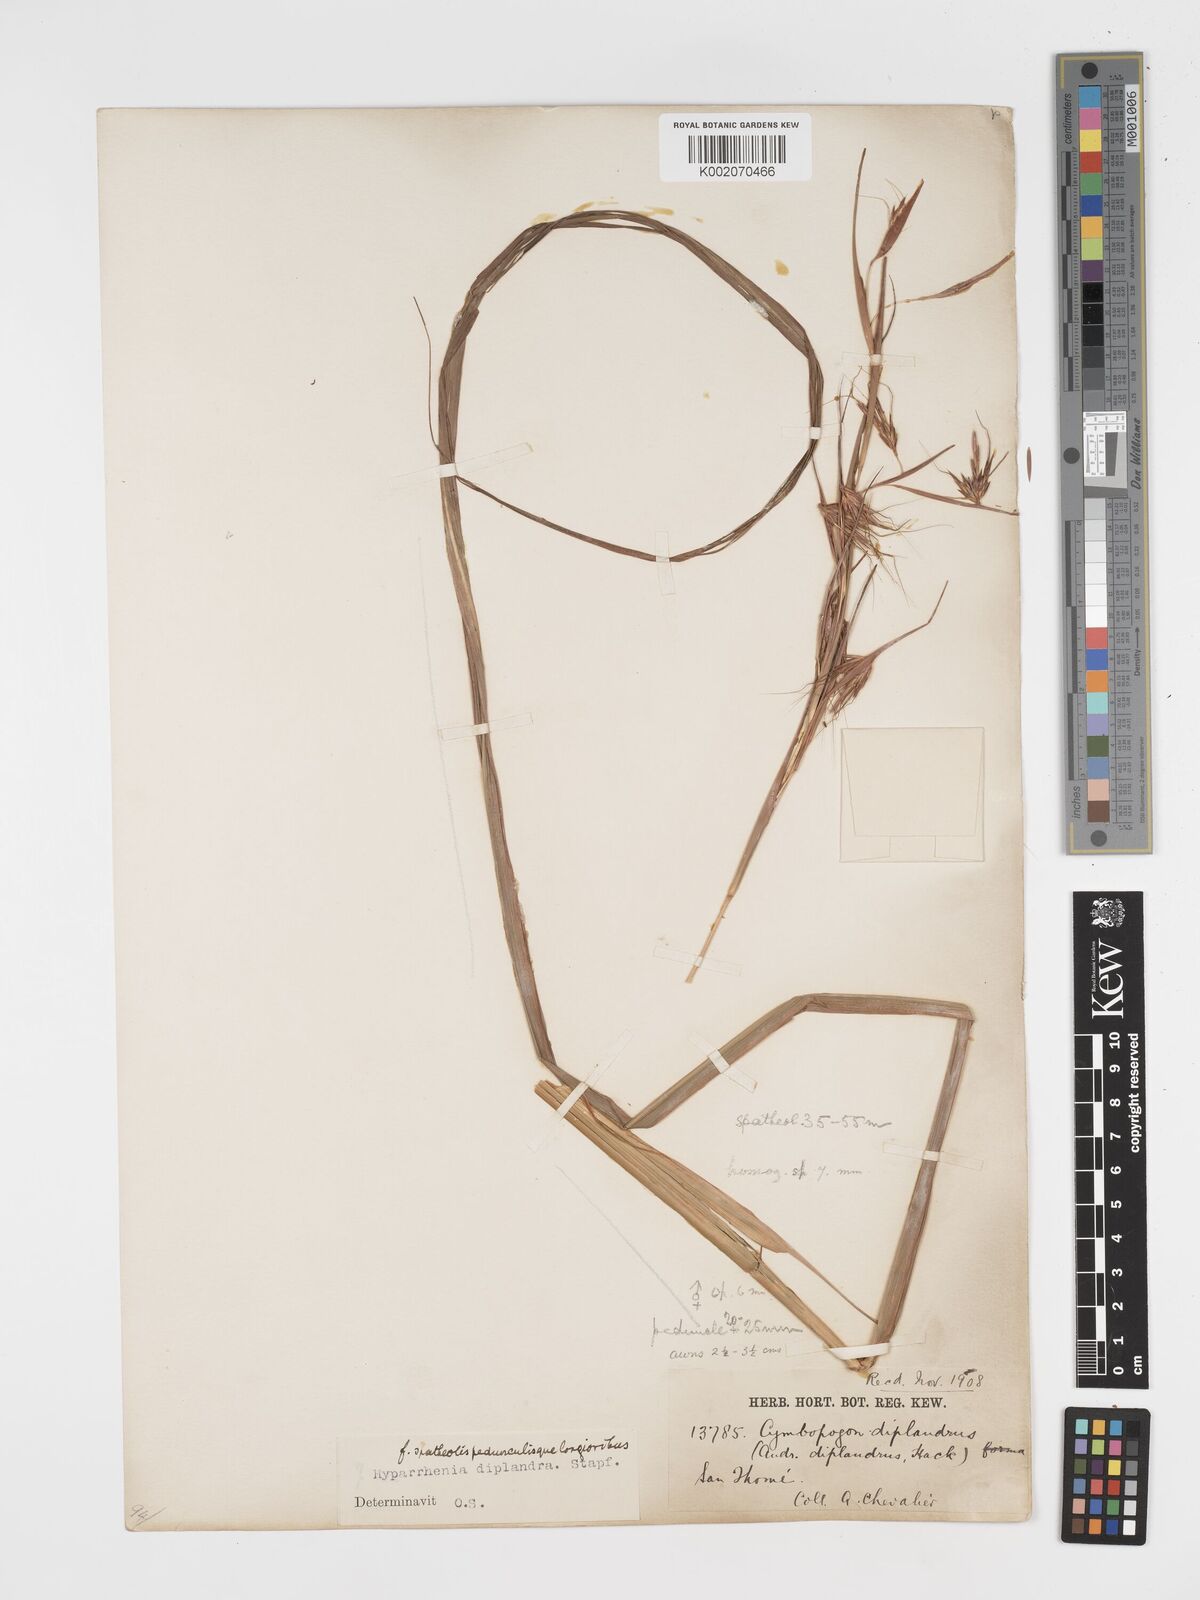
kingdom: Plantae
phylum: Tracheophyta
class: Liliopsida
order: Poales
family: Poaceae
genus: Hyparrhenia
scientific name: Hyparrhenia diplandra
